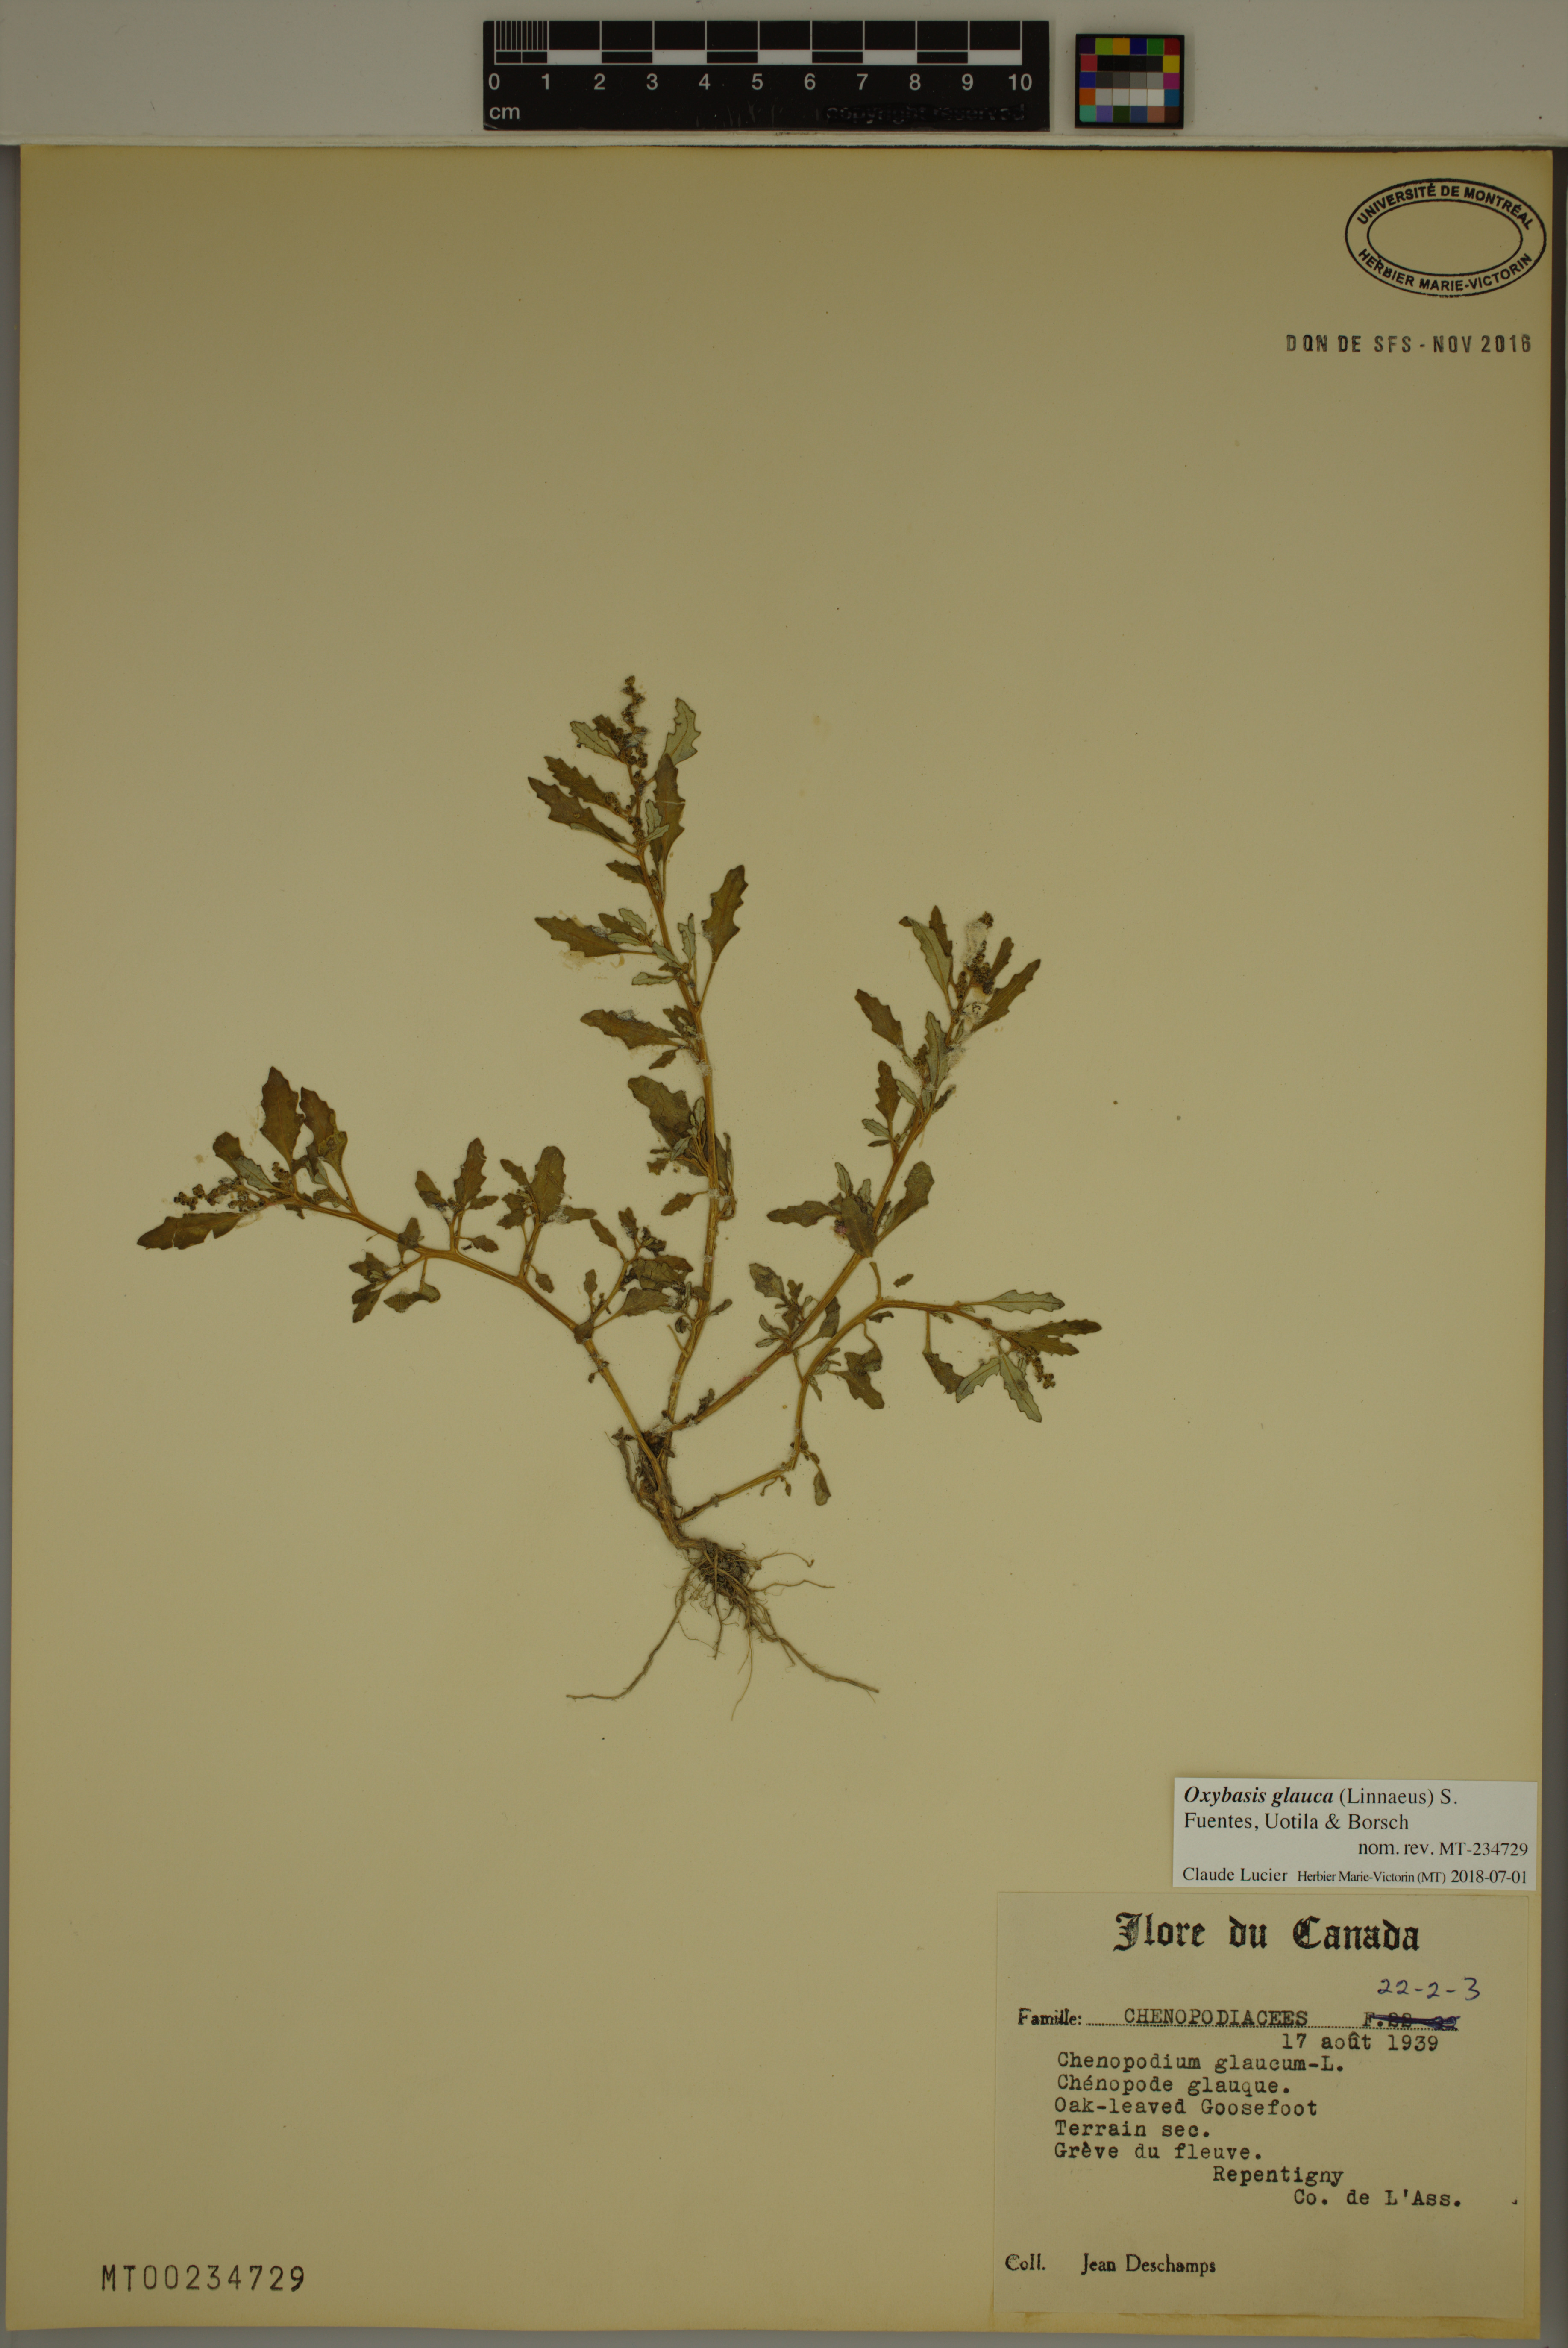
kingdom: Plantae
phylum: Tracheophyta
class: Magnoliopsida
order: Caryophyllales
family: Amaranthaceae
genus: Oxybasis
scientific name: Oxybasis glauca
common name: Glaucous goosefoot
